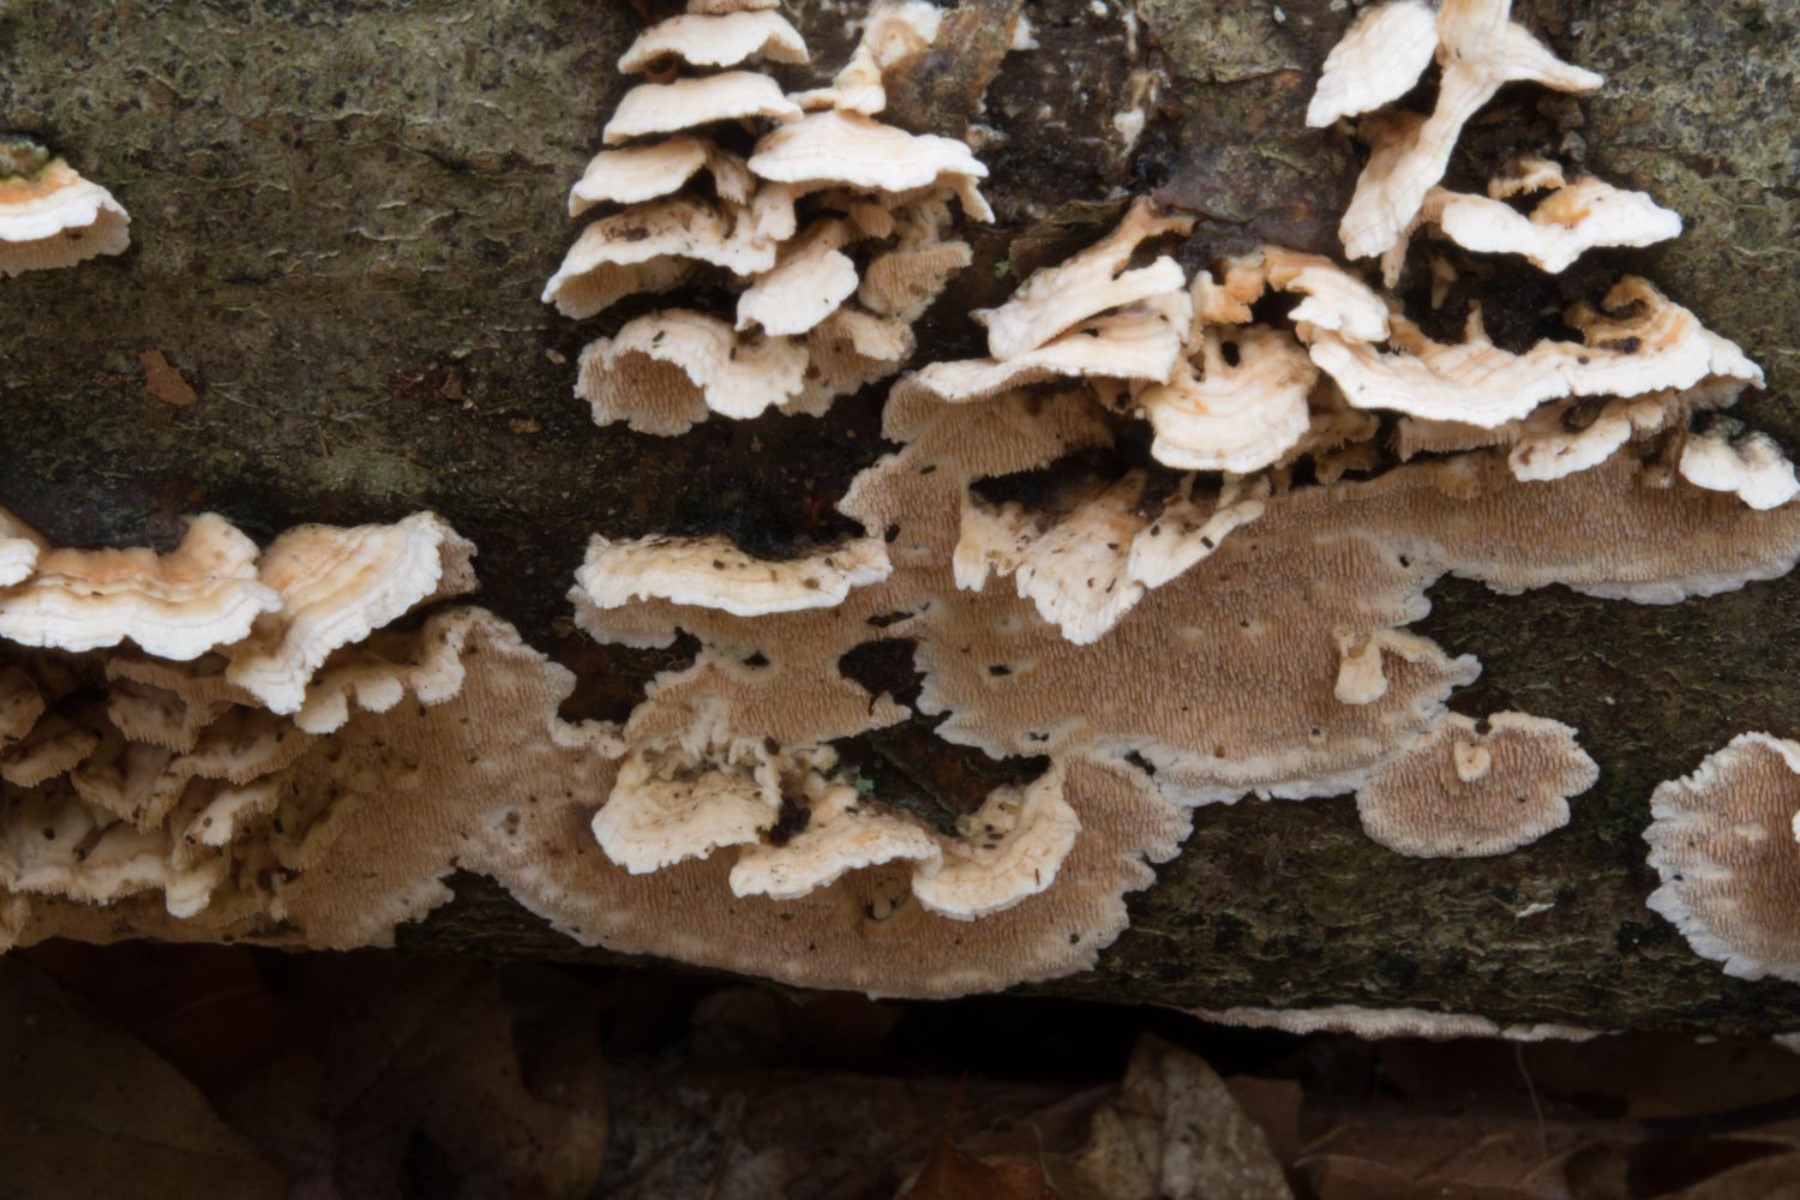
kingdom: Fungi
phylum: Basidiomycota
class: Agaricomycetes
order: Polyporales
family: Steccherinaceae
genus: Steccherinum
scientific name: Steccherinum ochraceum
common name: almindelig skønpig
